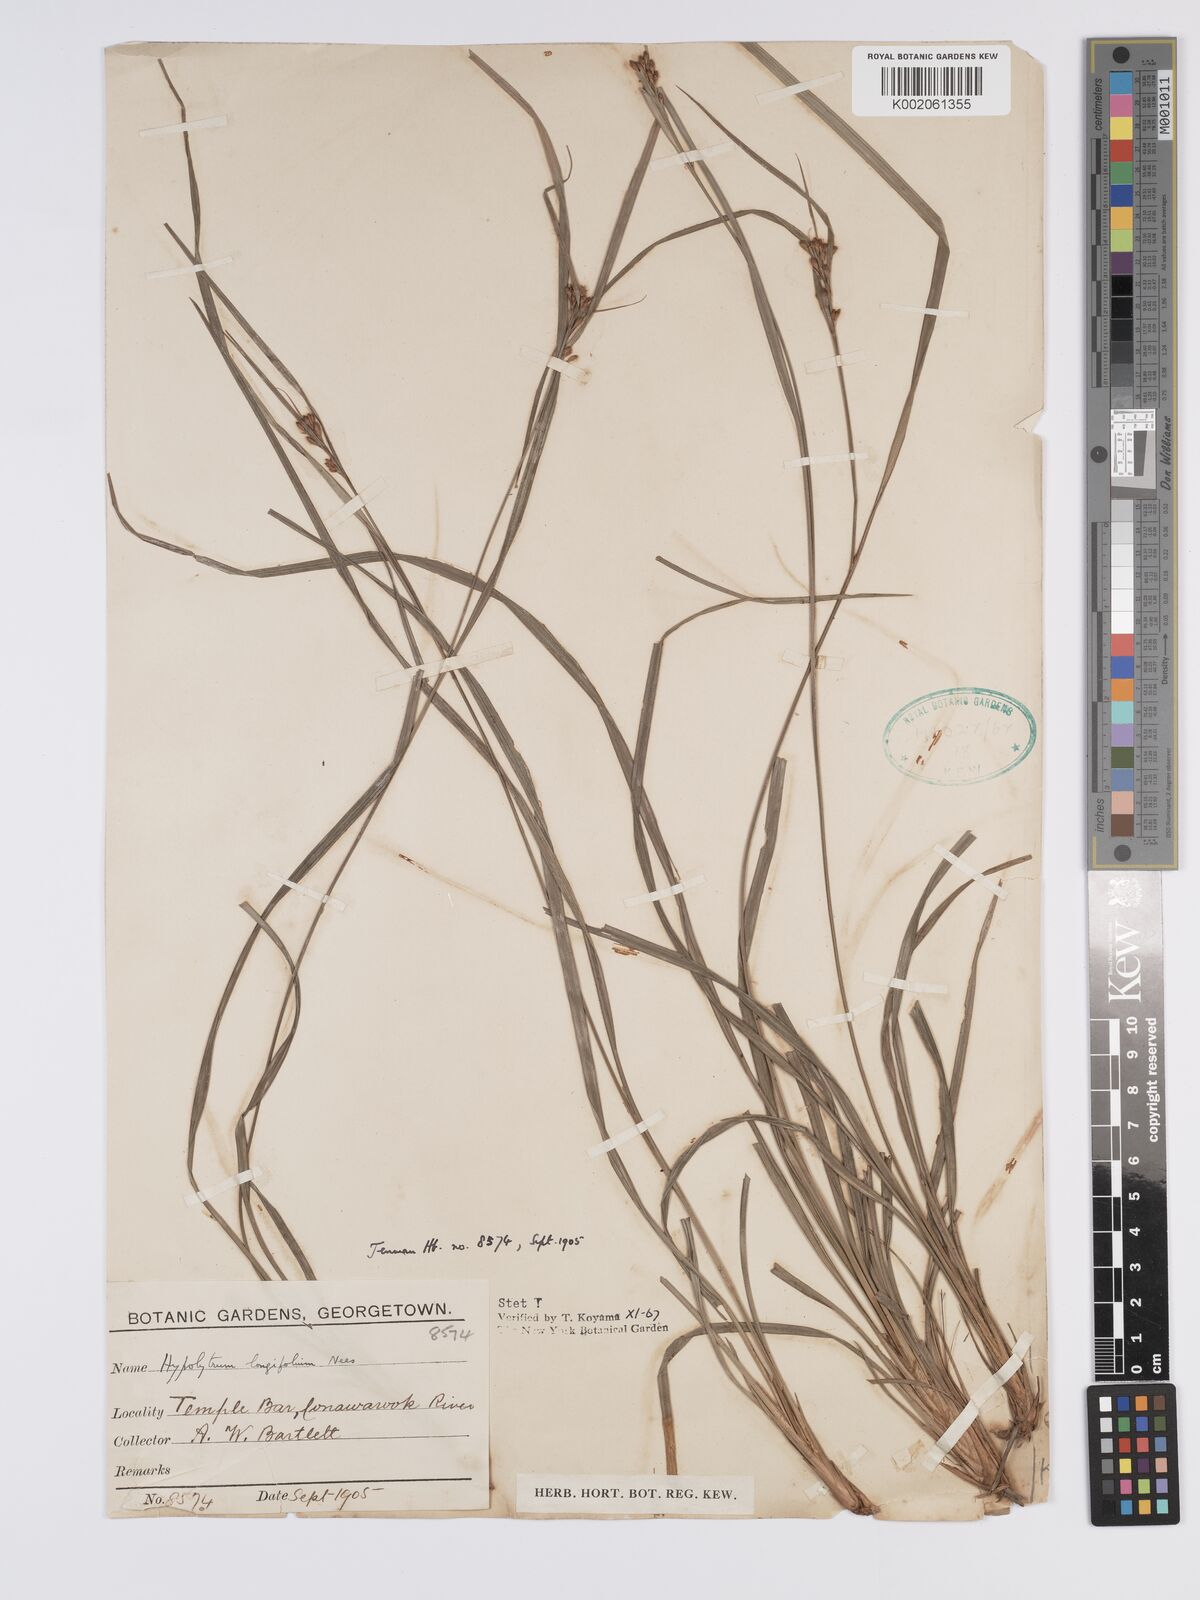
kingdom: Plantae
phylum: Tracheophyta
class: Liliopsida
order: Poales
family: Cyperaceae
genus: Hypolytrum
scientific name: Hypolytrum longifolium
